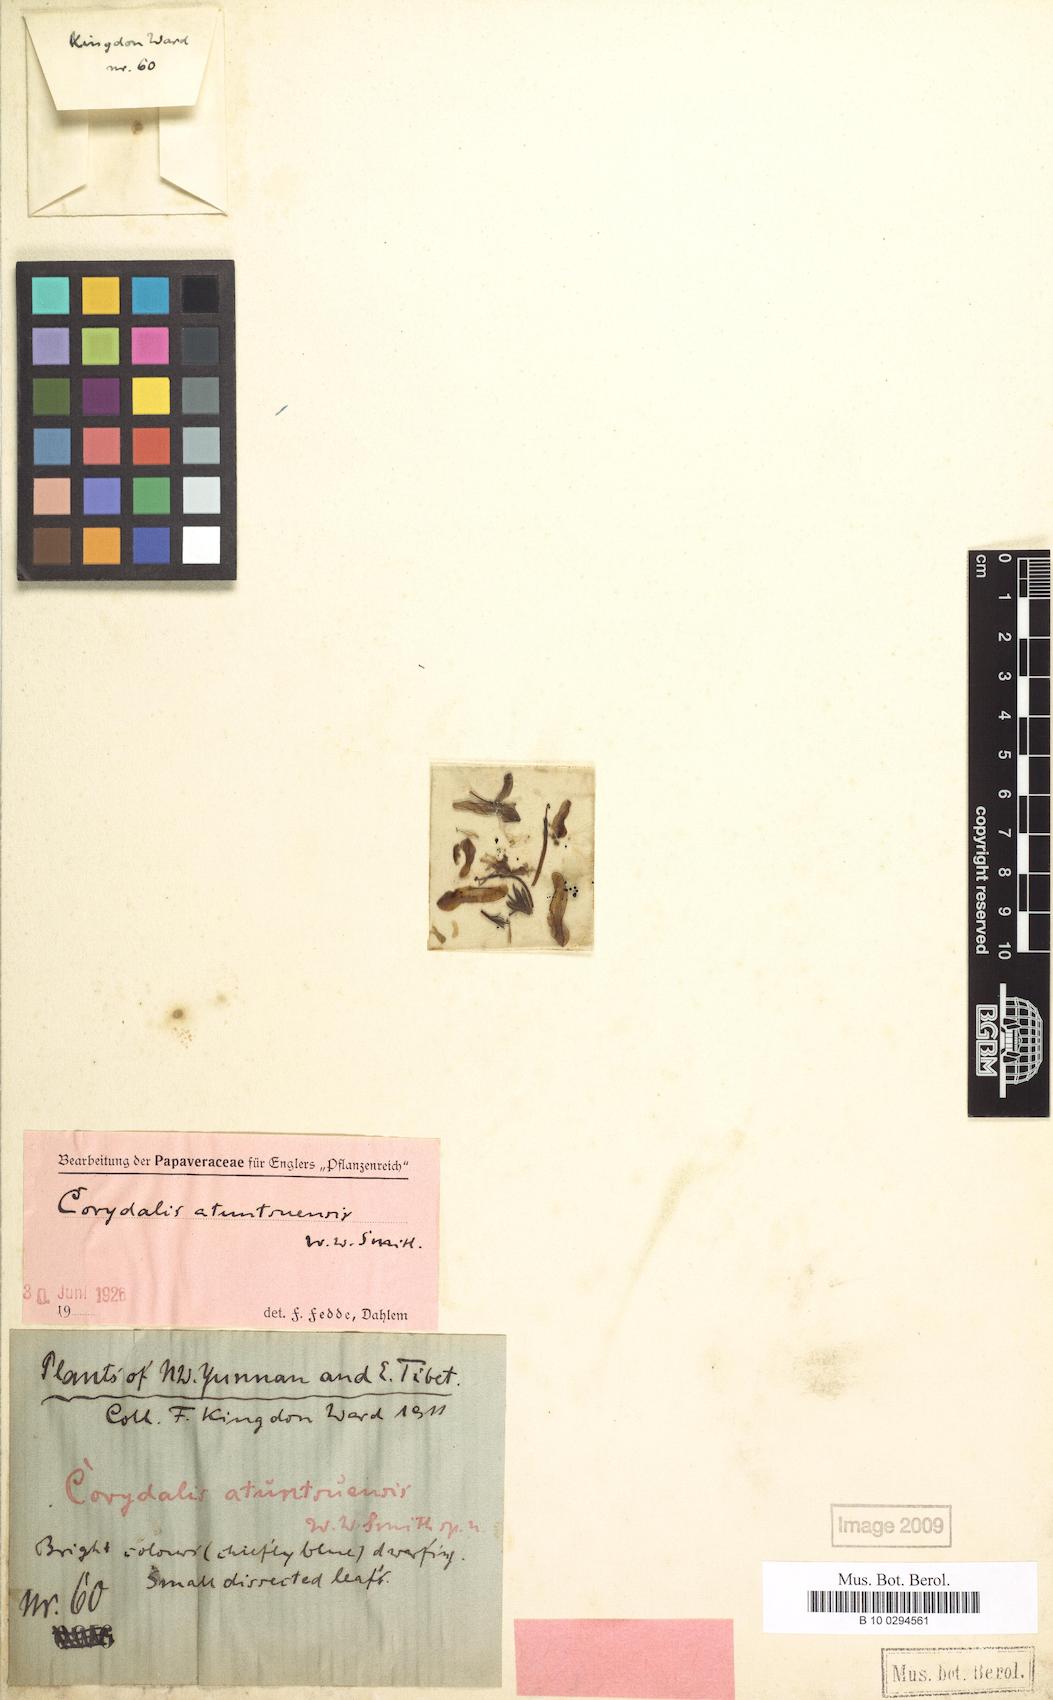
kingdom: Plantae
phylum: Tracheophyta
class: Magnoliopsida
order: Ranunculales
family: Papaveraceae
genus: Corydalis
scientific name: Corydalis atuntsuensis
